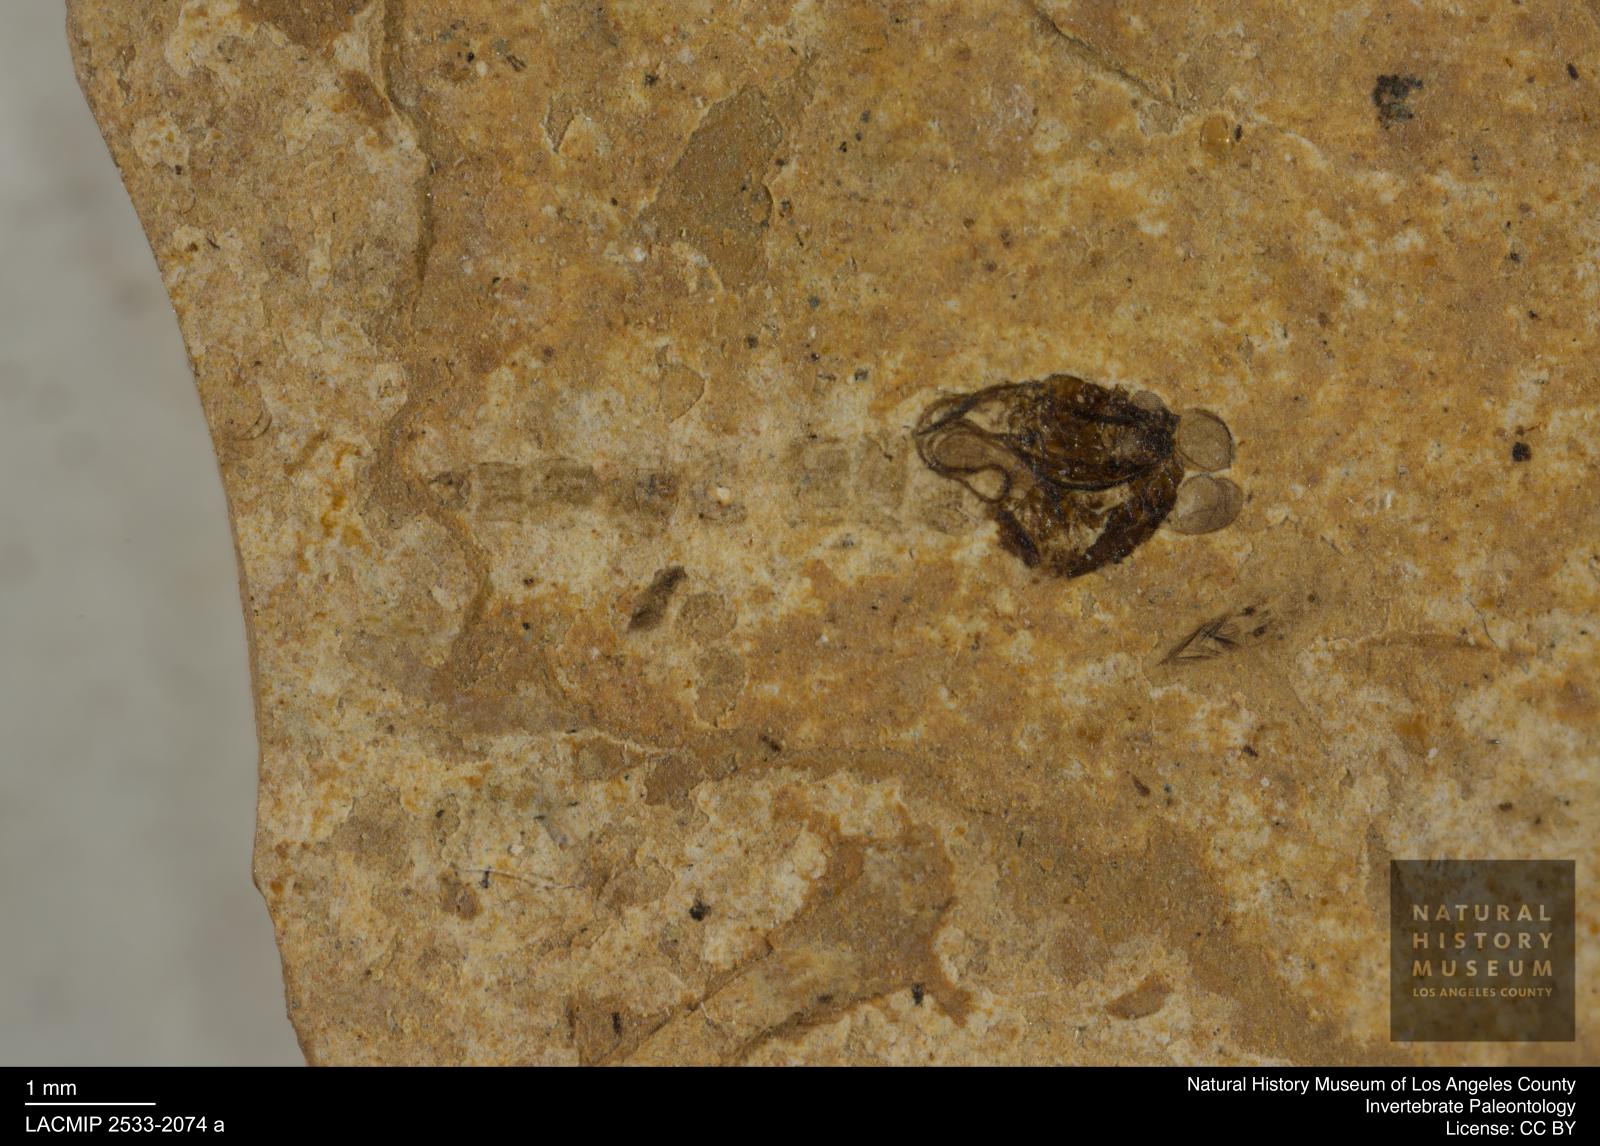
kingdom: Animalia
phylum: Arthropoda
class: Insecta
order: Diptera
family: Chironomidae
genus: Pelopiina
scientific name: Pelopiina
